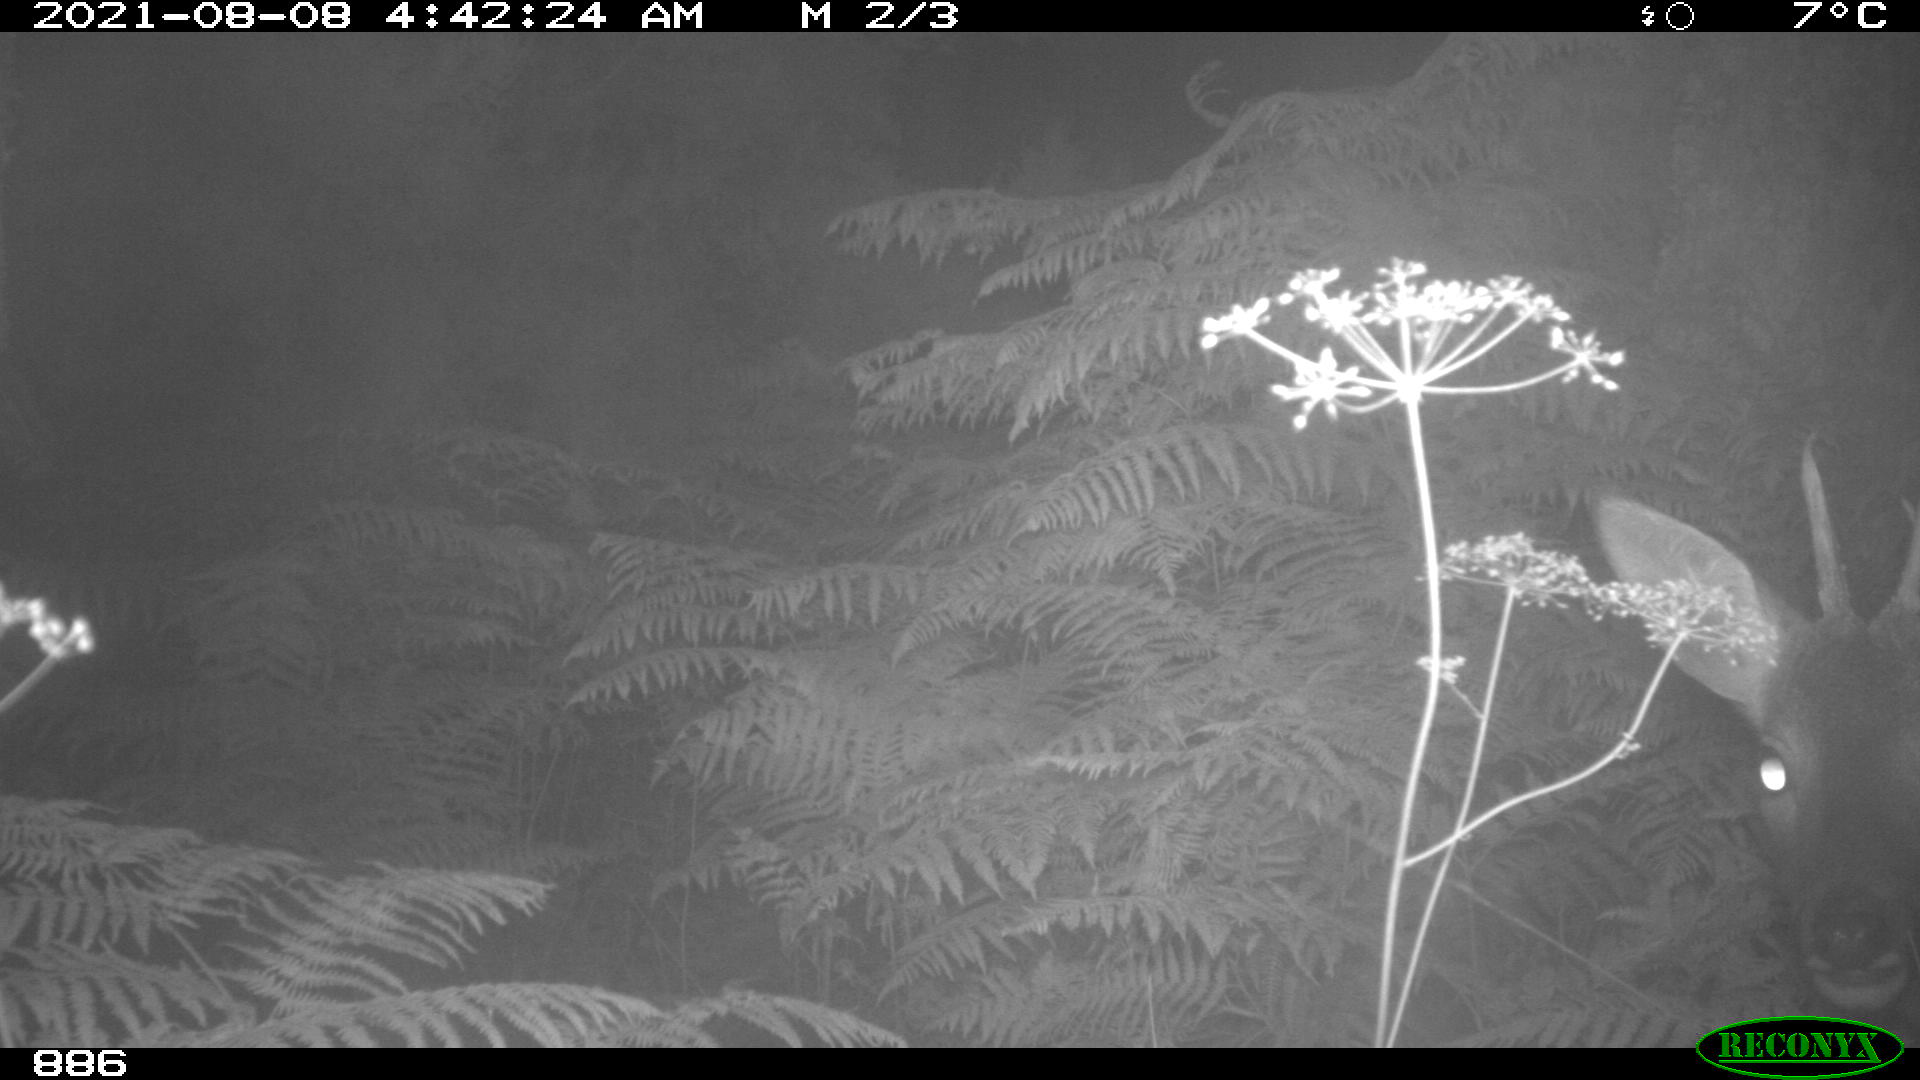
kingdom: Animalia
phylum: Chordata
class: Mammalia
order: Artiodactyla
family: Cervidae
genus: Capreolus
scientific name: Capreolus capreolus
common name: Western roe deer
